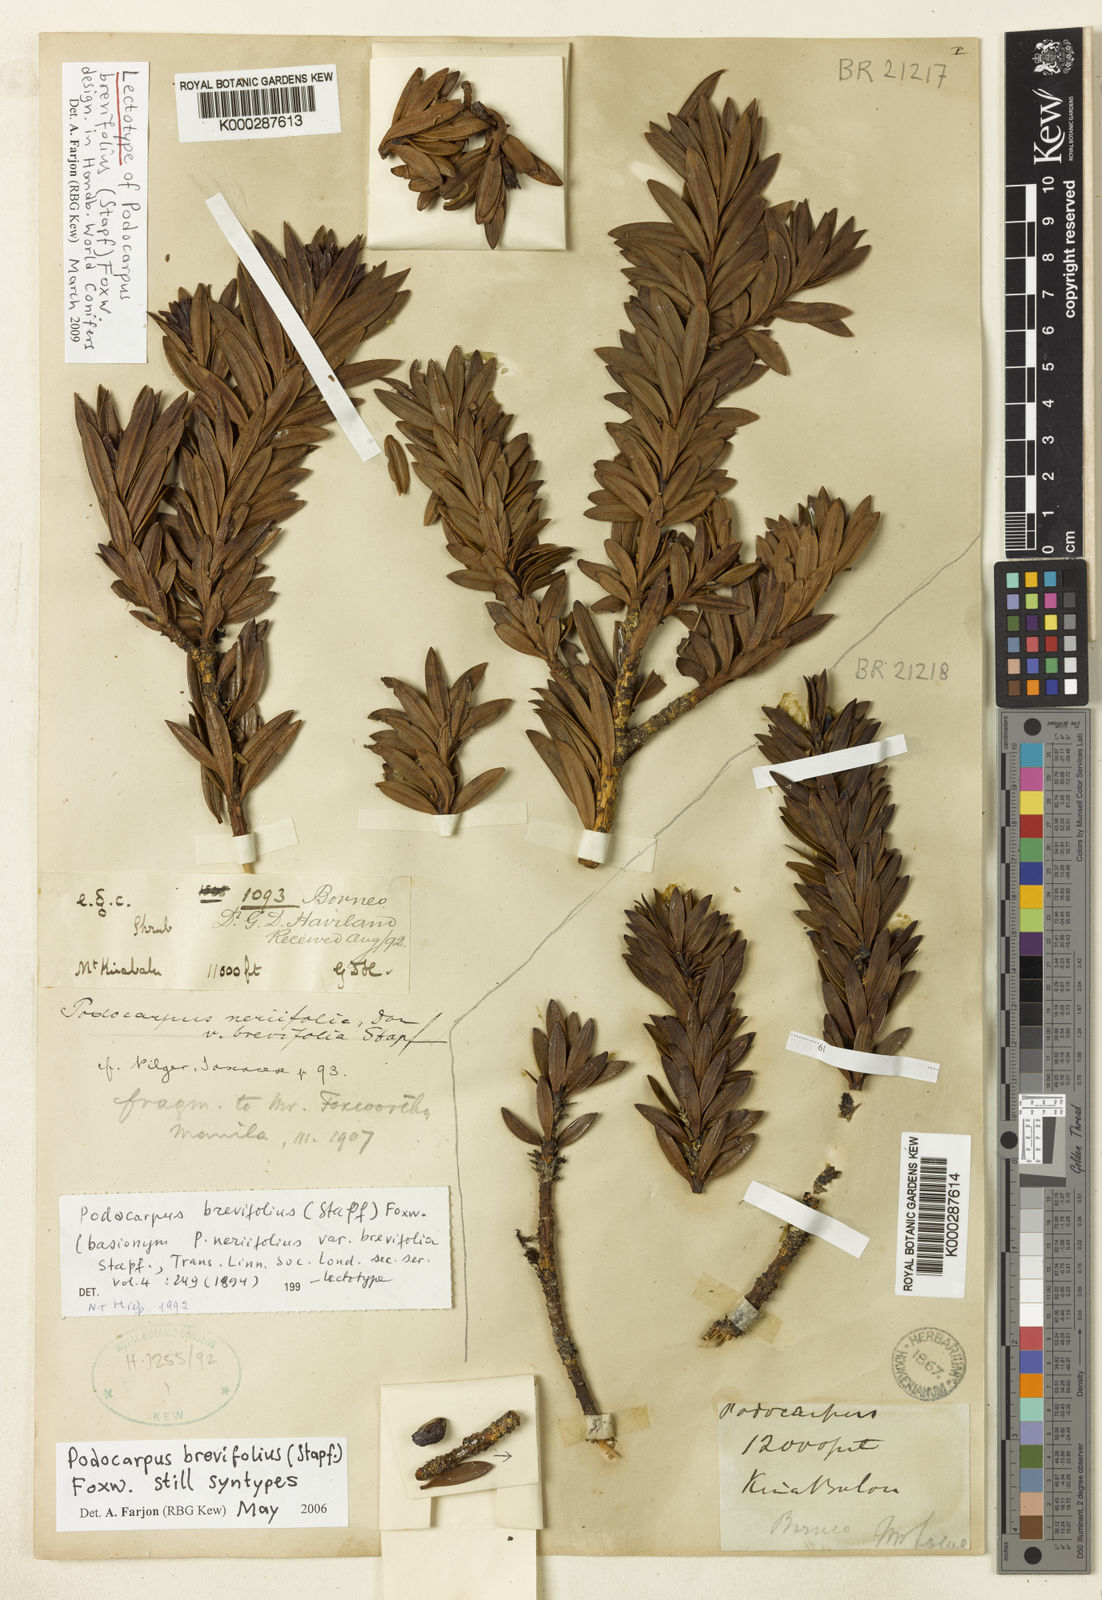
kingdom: Plantae
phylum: Tracheophyta
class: Pinopsida
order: Pinales
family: Podocarpaceae
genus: Podocarpus
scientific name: Podocarpus brevifolius
